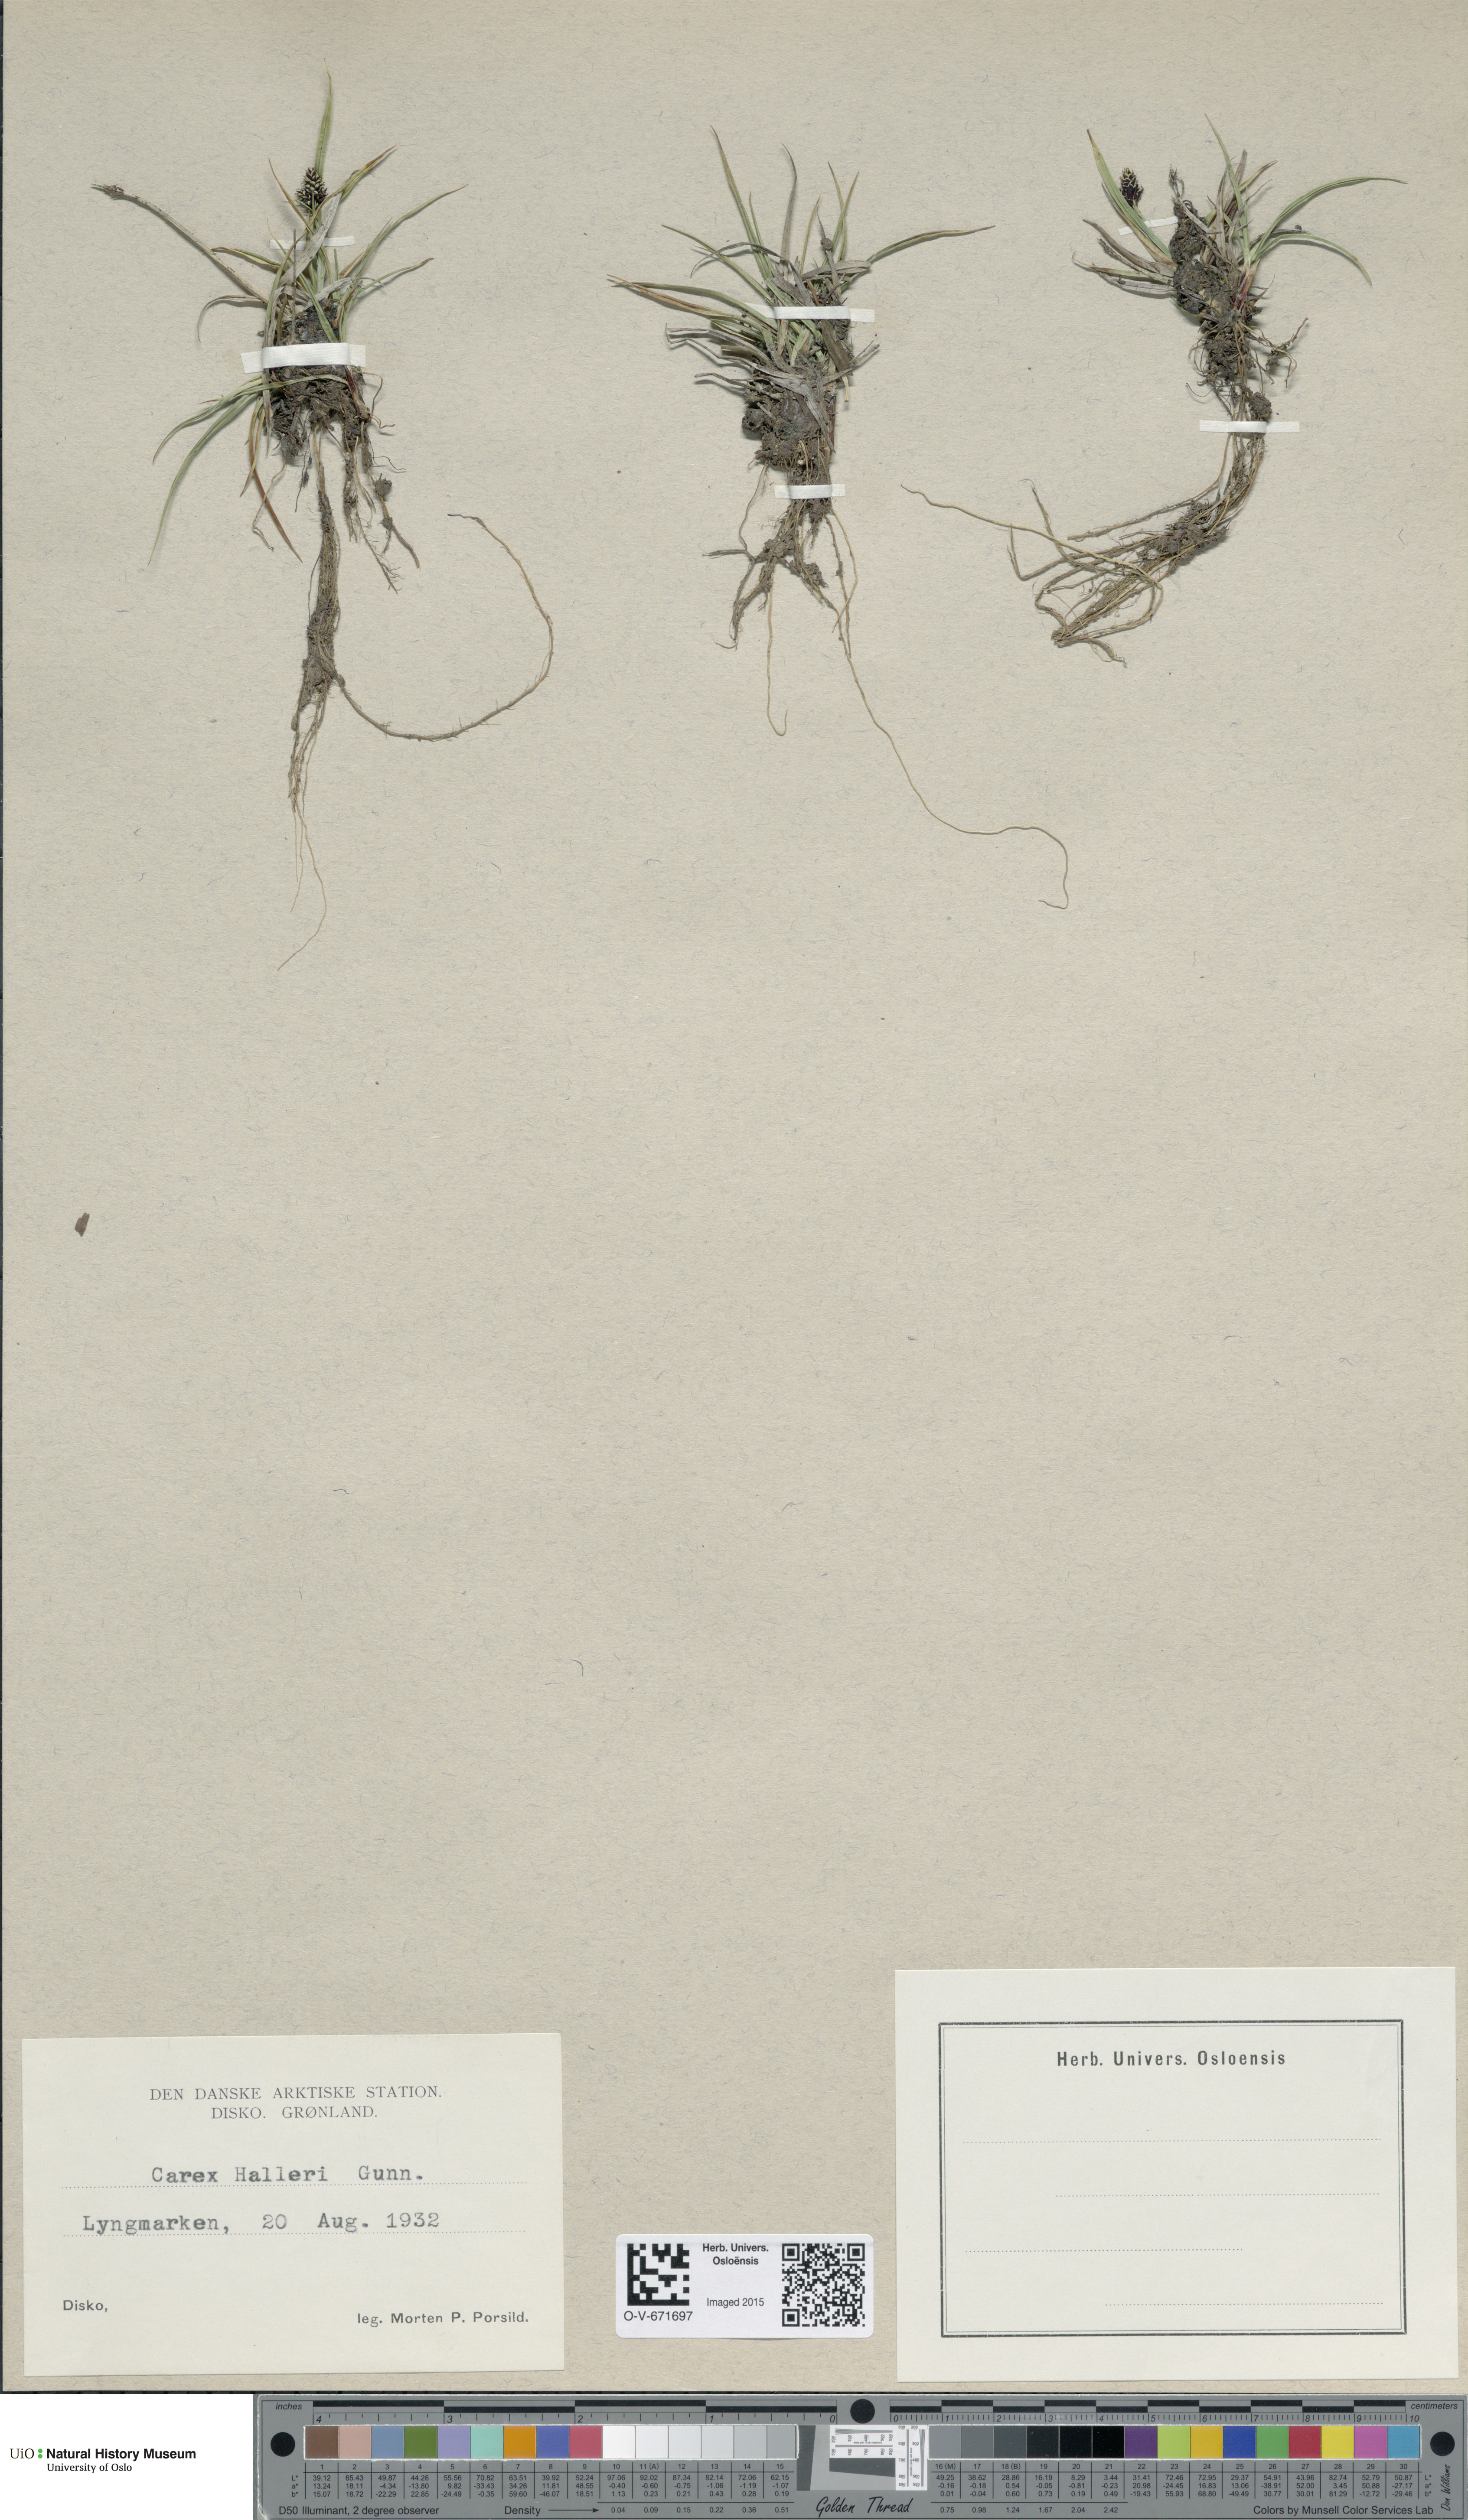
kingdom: Plantae
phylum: Tracheophyta
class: Liliopsida
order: Poales
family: Cyperaceae
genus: Carex
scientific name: Carex norvegica
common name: Close-headed alpine-sedge
